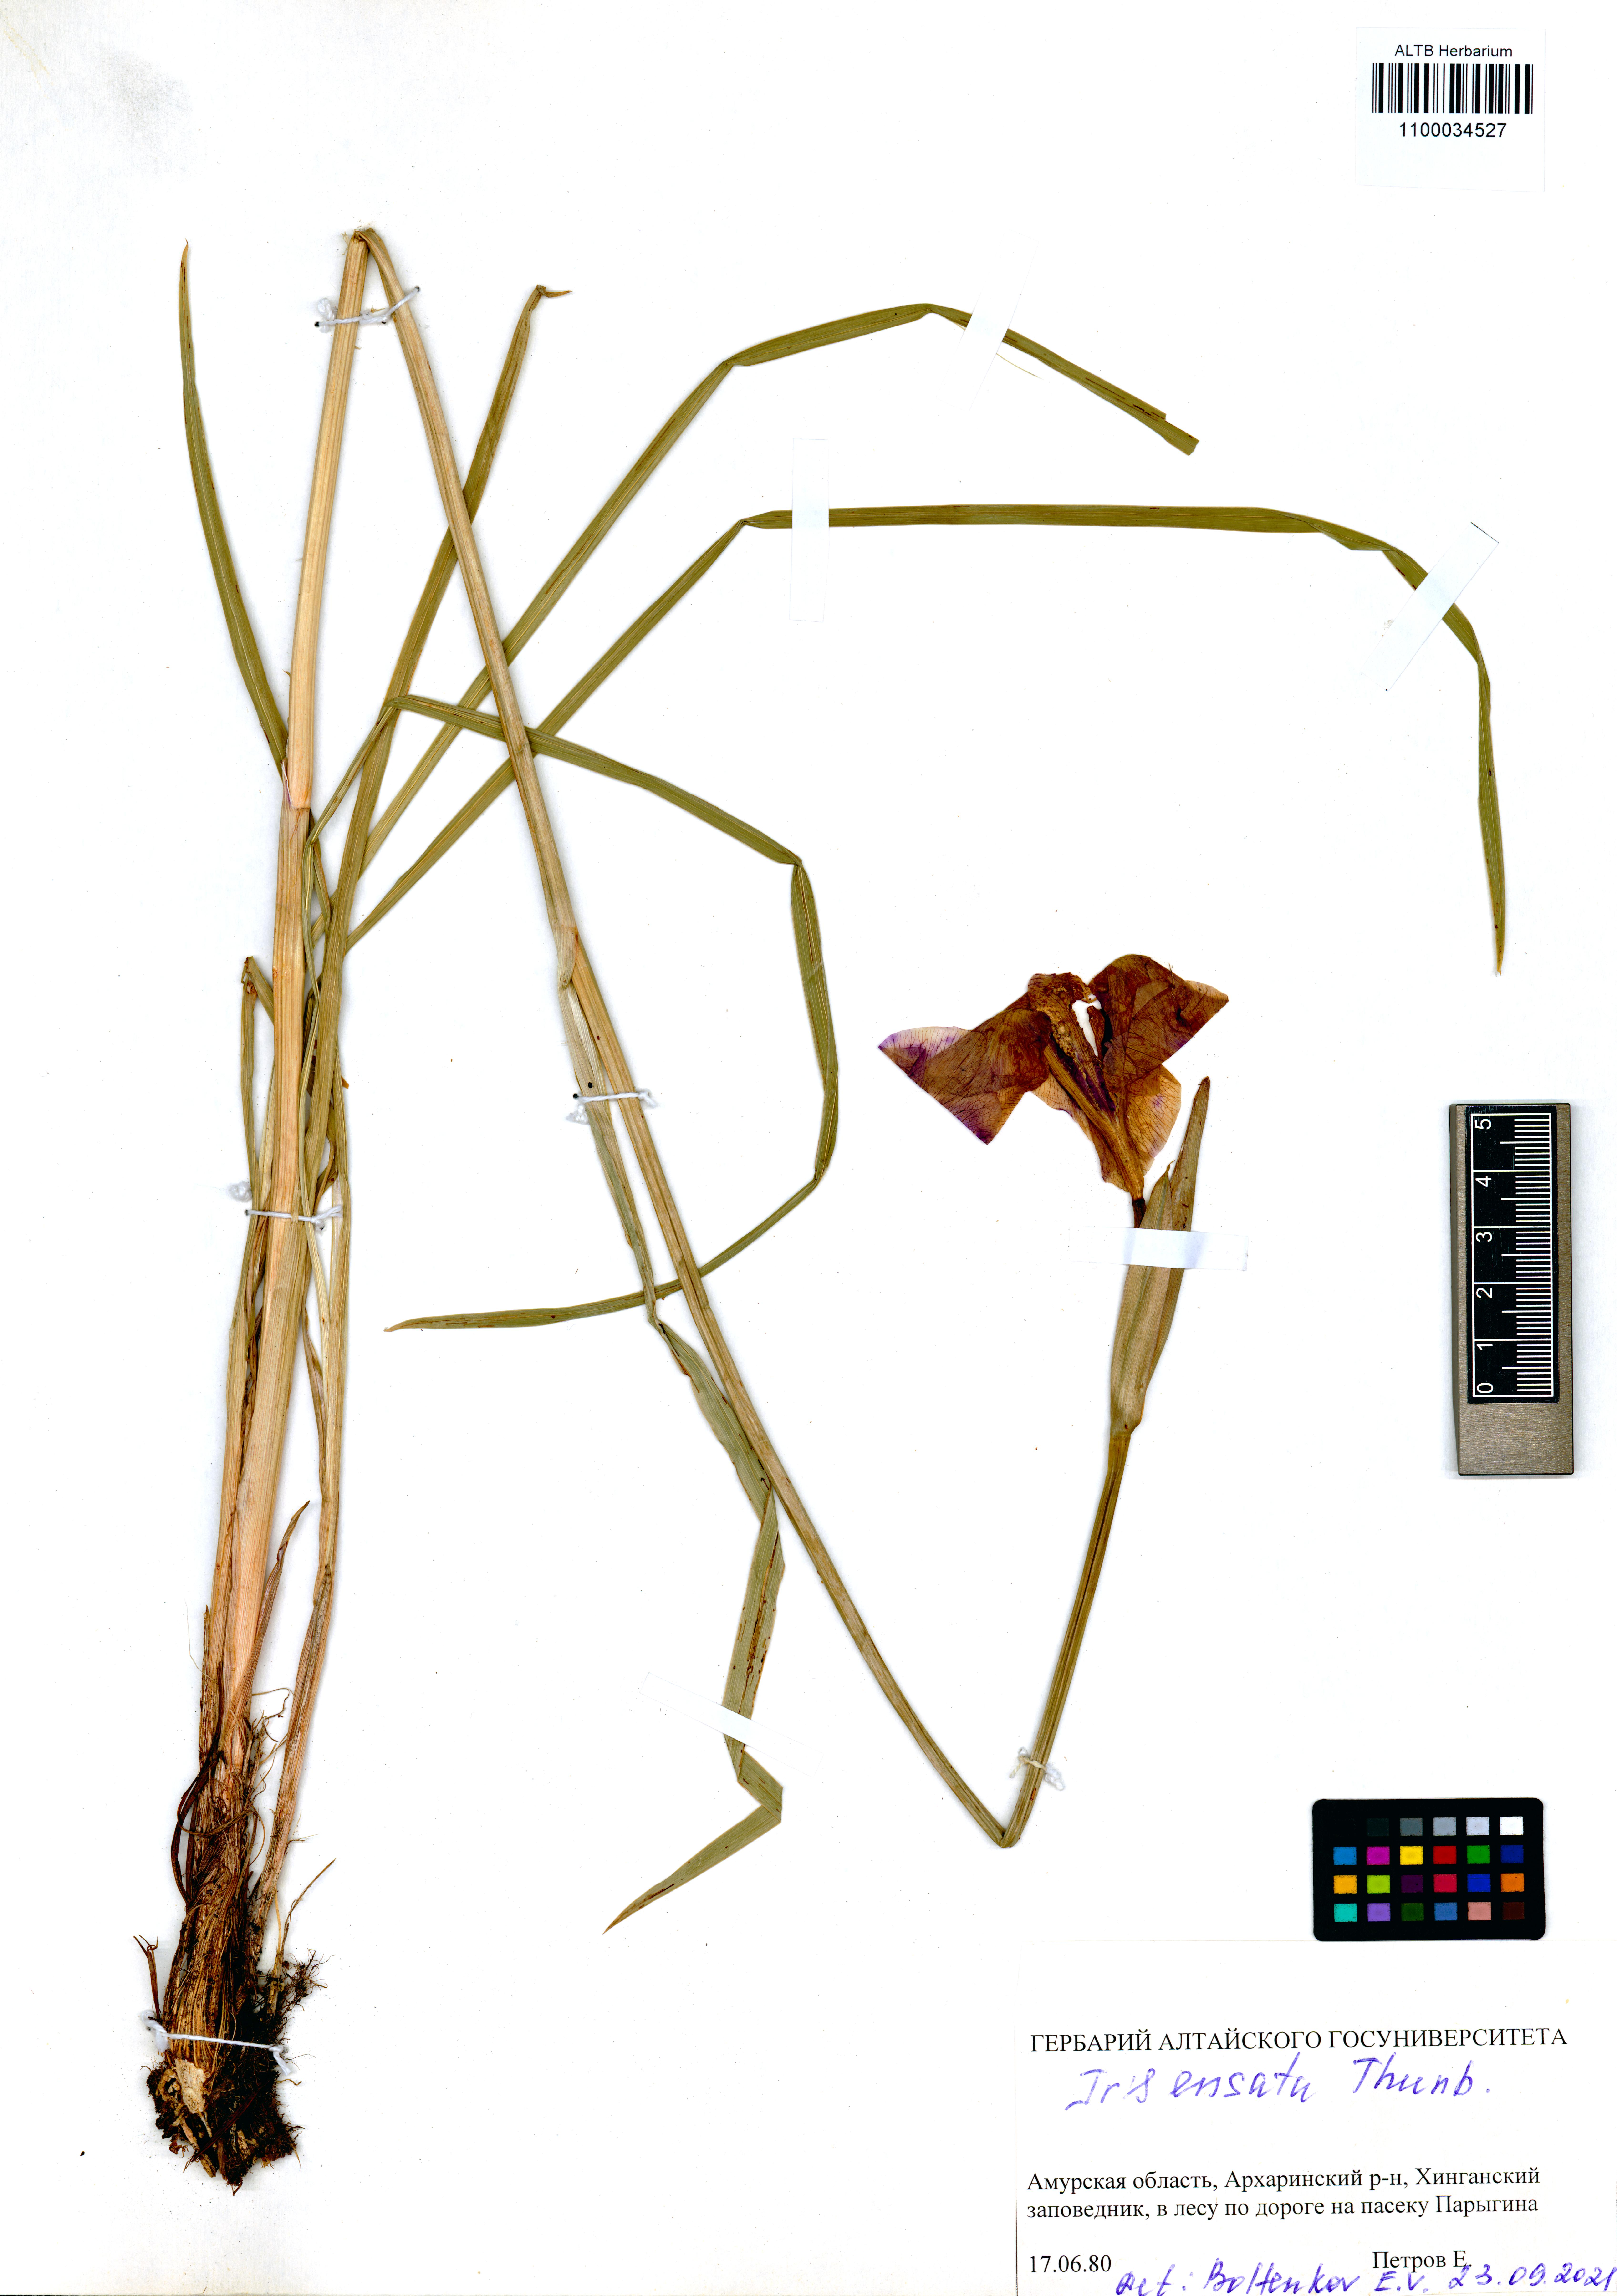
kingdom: Plantae
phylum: Tracheophyta
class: Liliopsida
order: Asparagales
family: Iridaceae
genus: Iris
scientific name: Iris ensata
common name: Beaked iris
